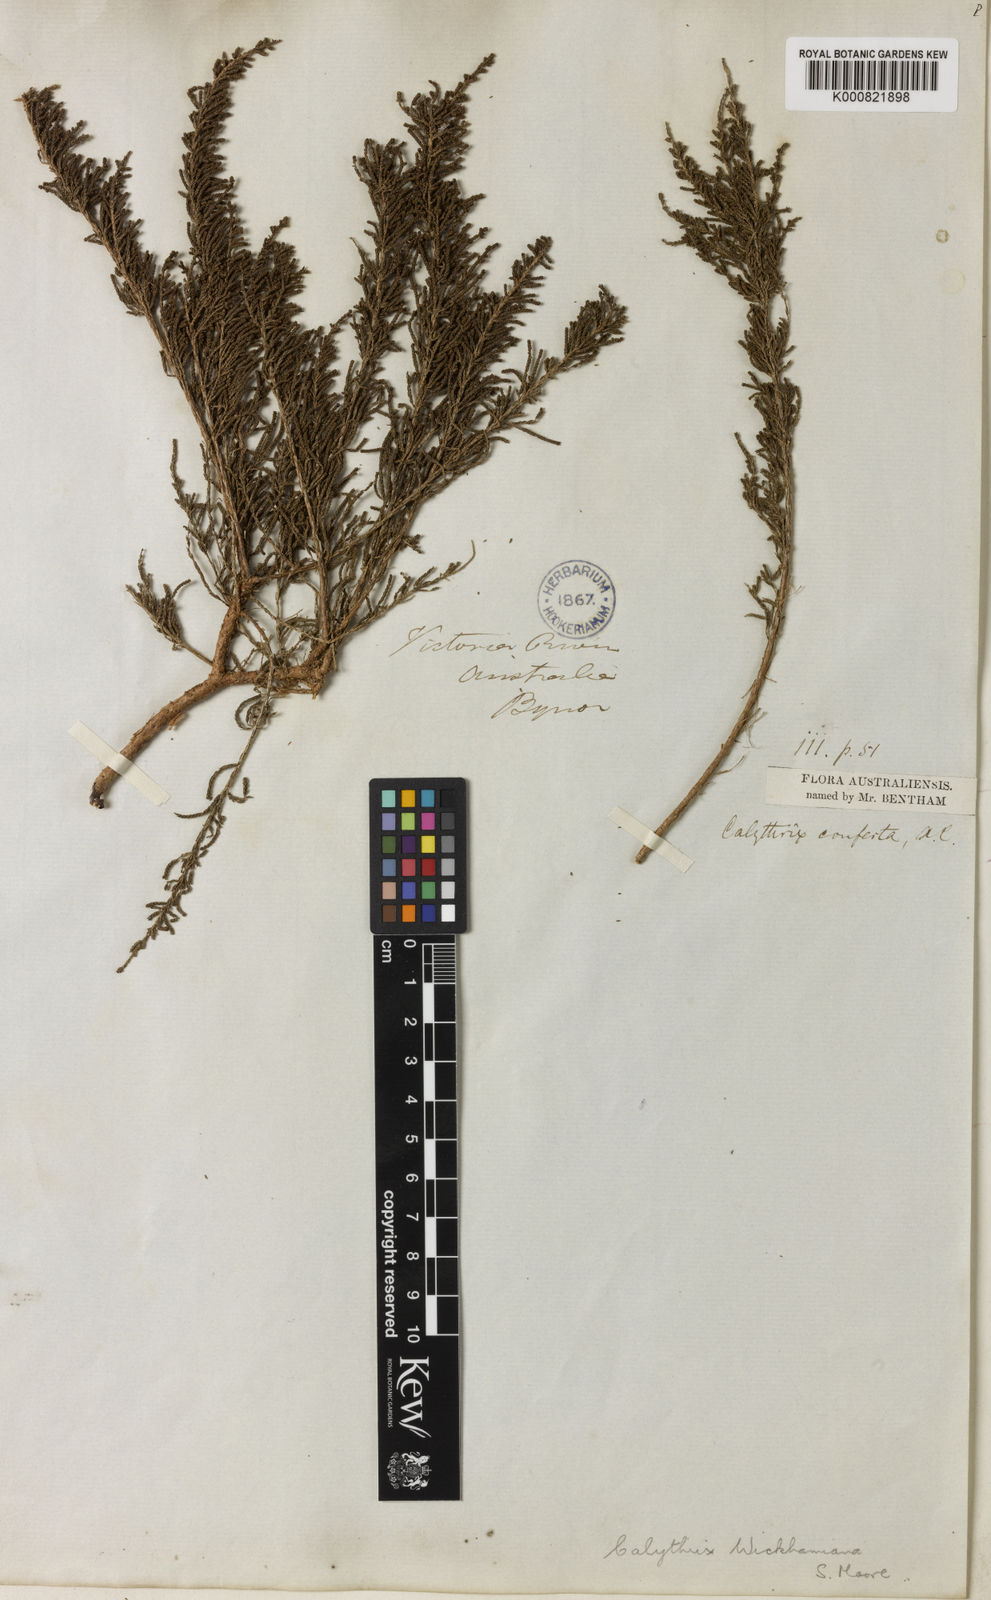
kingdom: Plantae
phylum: Tracheophyta
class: Magnoliopsida
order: Myrtales
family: Myrtaceae
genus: Calytrix
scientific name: Calytrix exstipulata
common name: Kimberley heather
